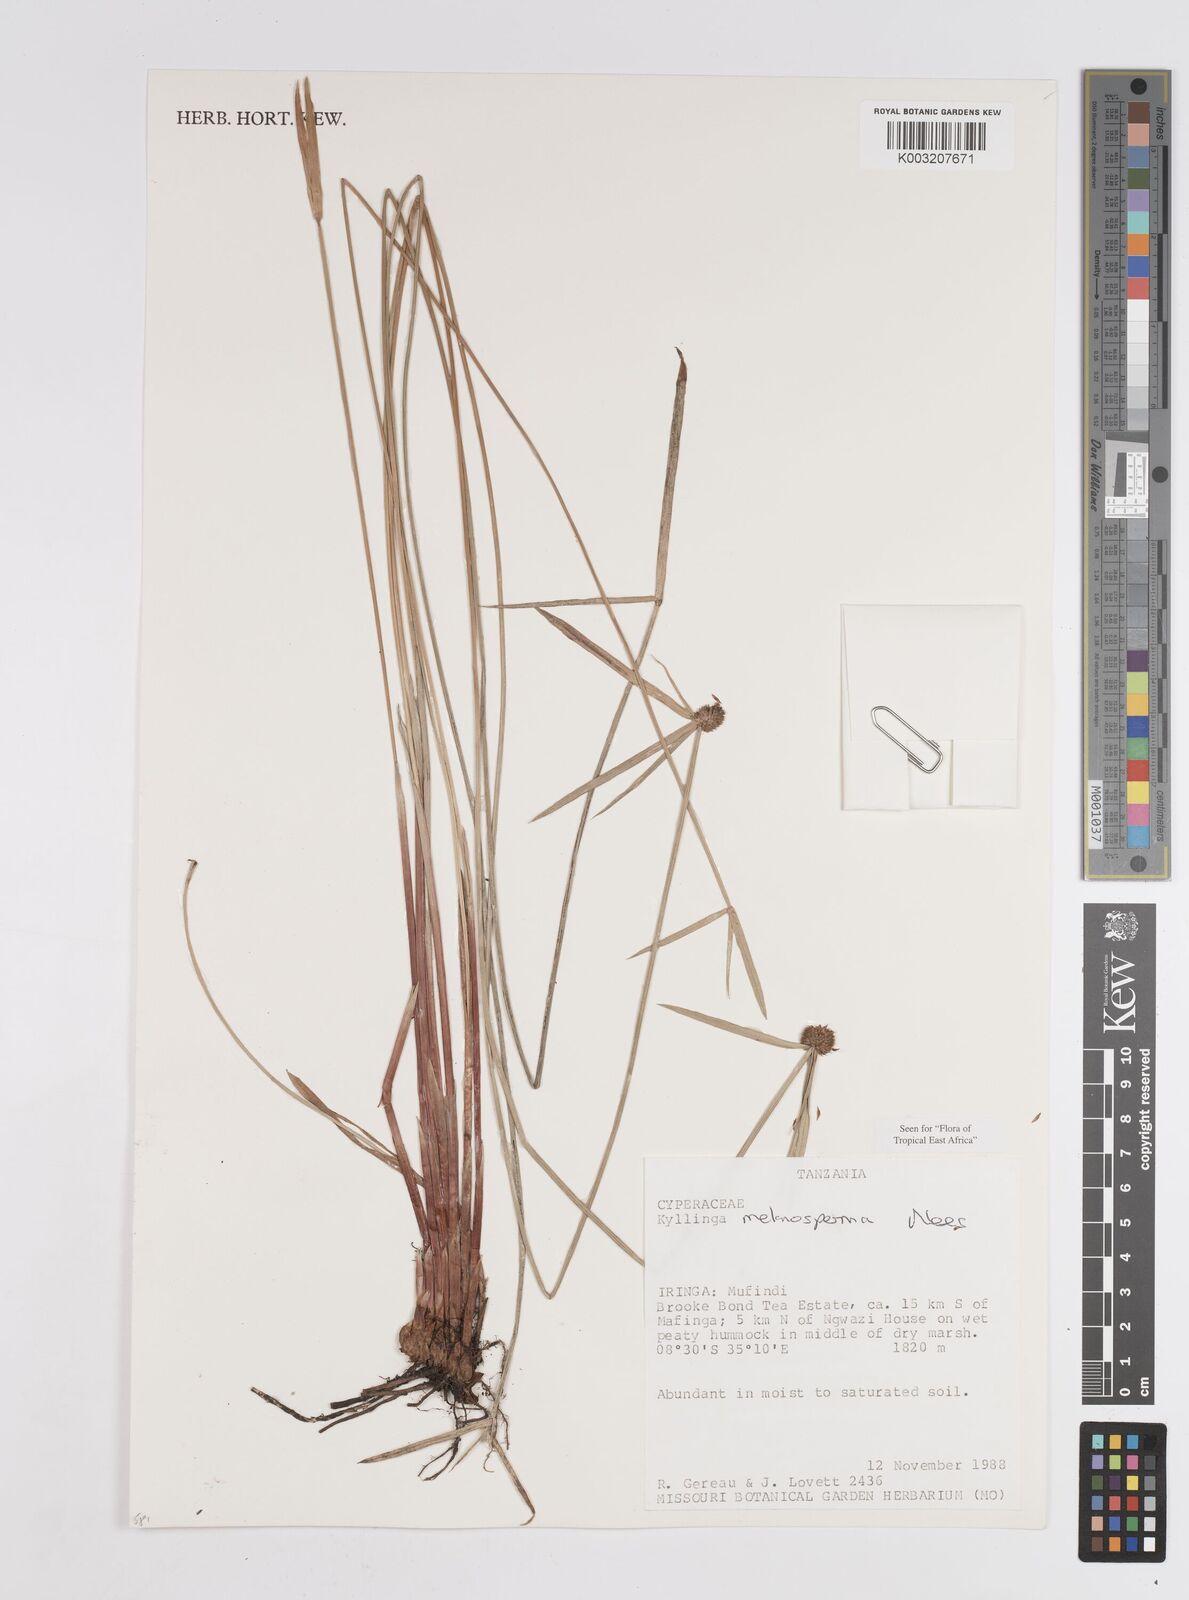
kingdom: Plantae
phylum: Tracheophyta
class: Liliopsida
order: Poales
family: Cyperaceae
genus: Cyperus
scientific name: Cyperus melanospermus
